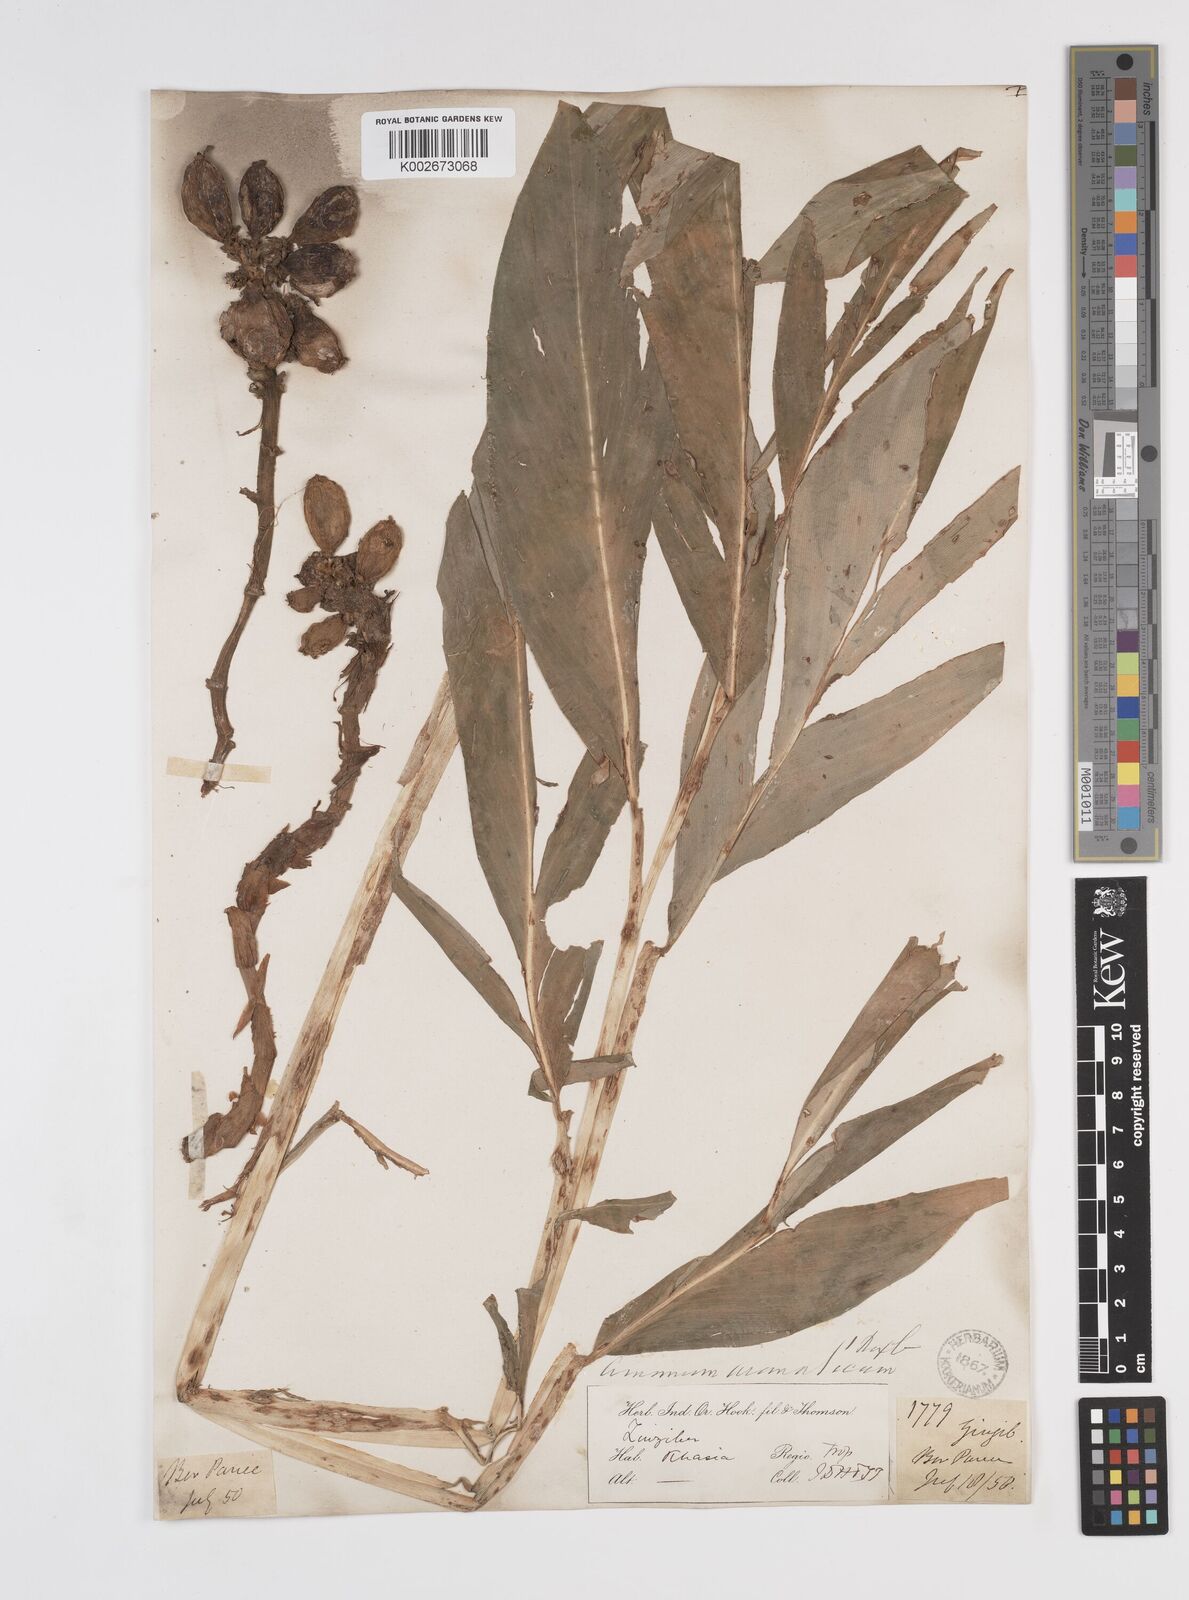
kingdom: Plantae
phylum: Tracheophyta
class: Liliopsida
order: Zingiberales
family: Zingiberaceae
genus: Wurfbainia
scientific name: Wurfbainia aromatica
